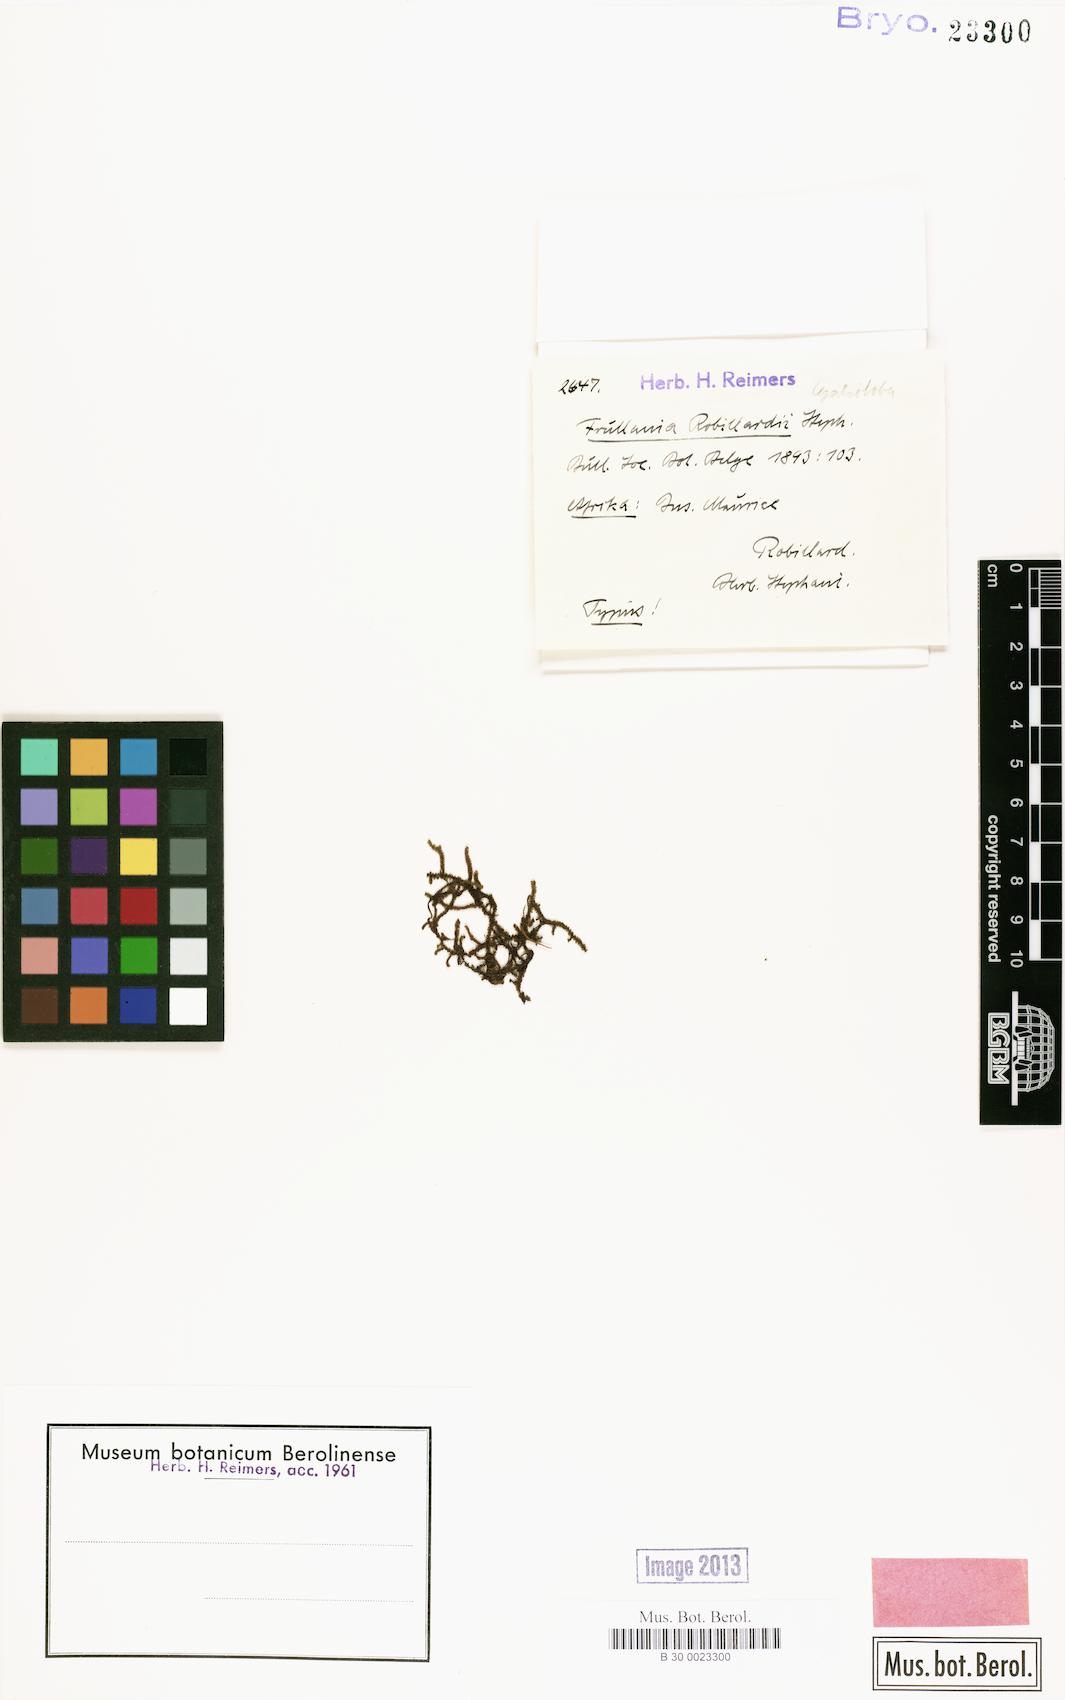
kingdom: Plantae
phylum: Marchantiophyta
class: Jungermanniopsida
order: Porellales
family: Frullaniaceae
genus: Frullania
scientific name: Frullania anderssonii
